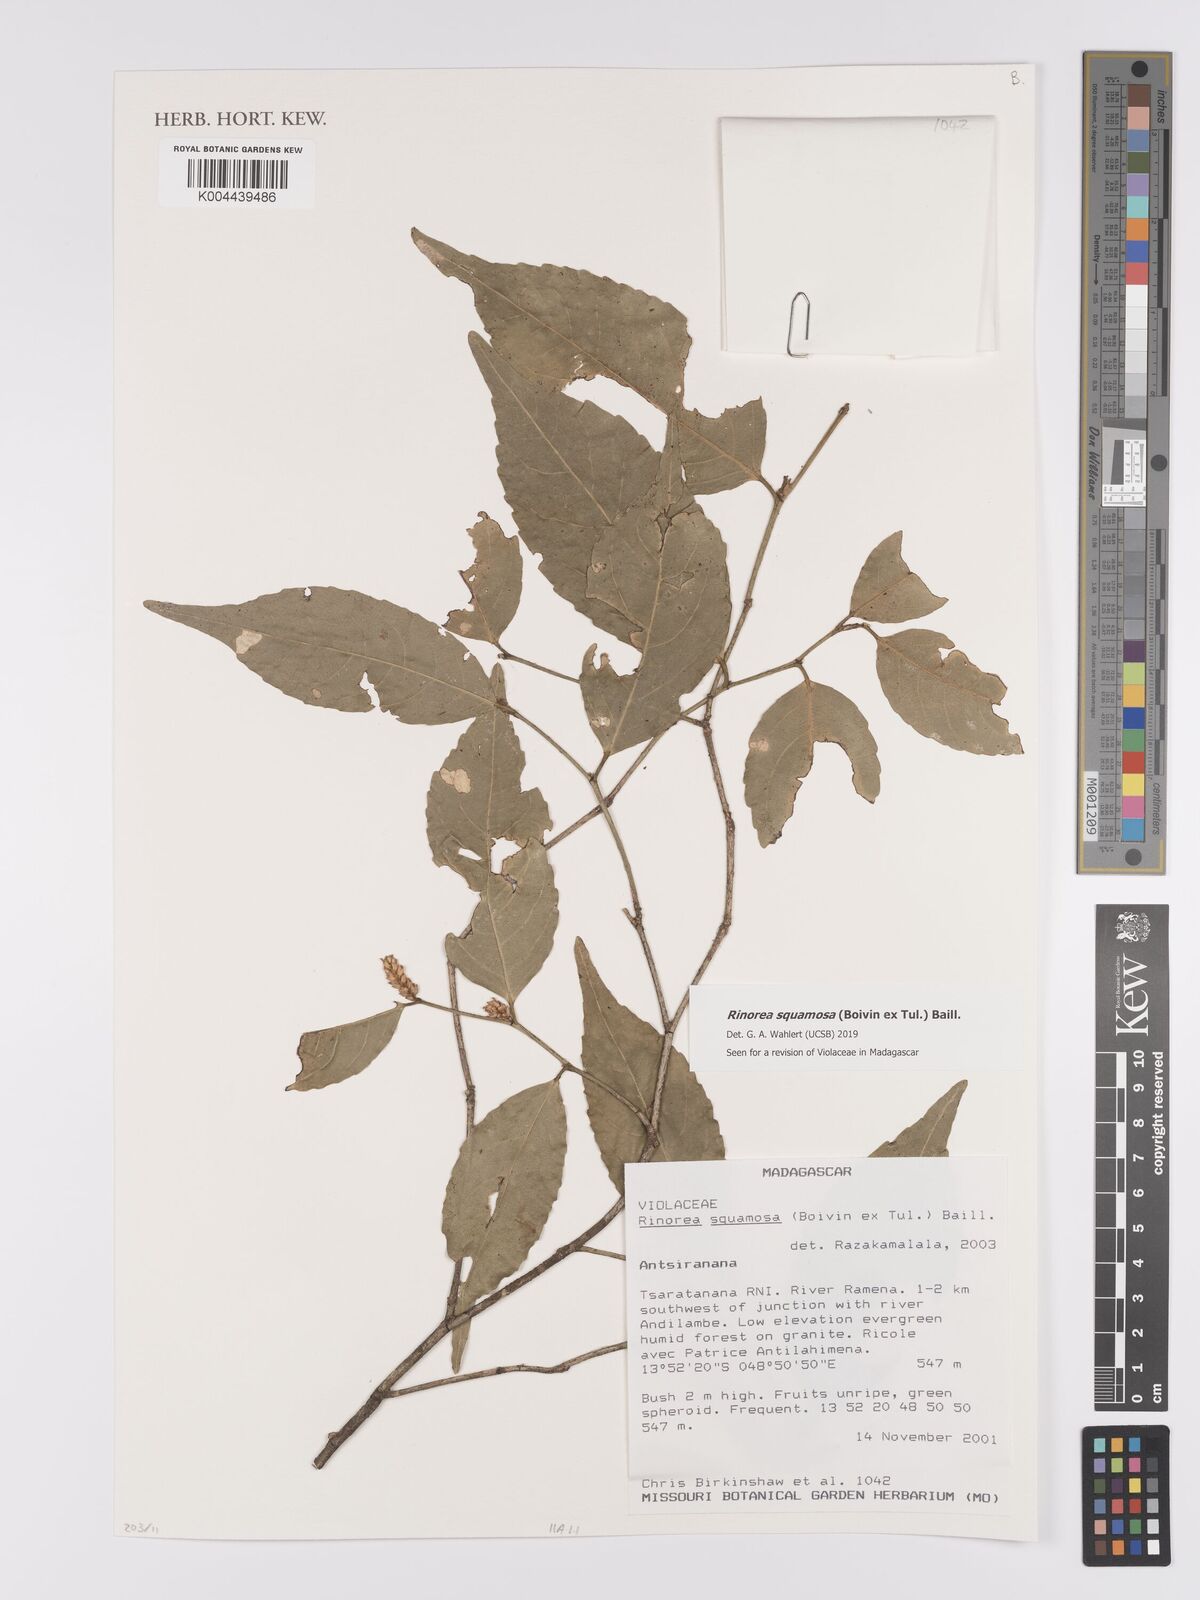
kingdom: Plantae
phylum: Tracheophyta
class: Magnoliopsida
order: Malpighiales
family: Violaceae
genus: Rinorea
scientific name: Rinorea squamosa
